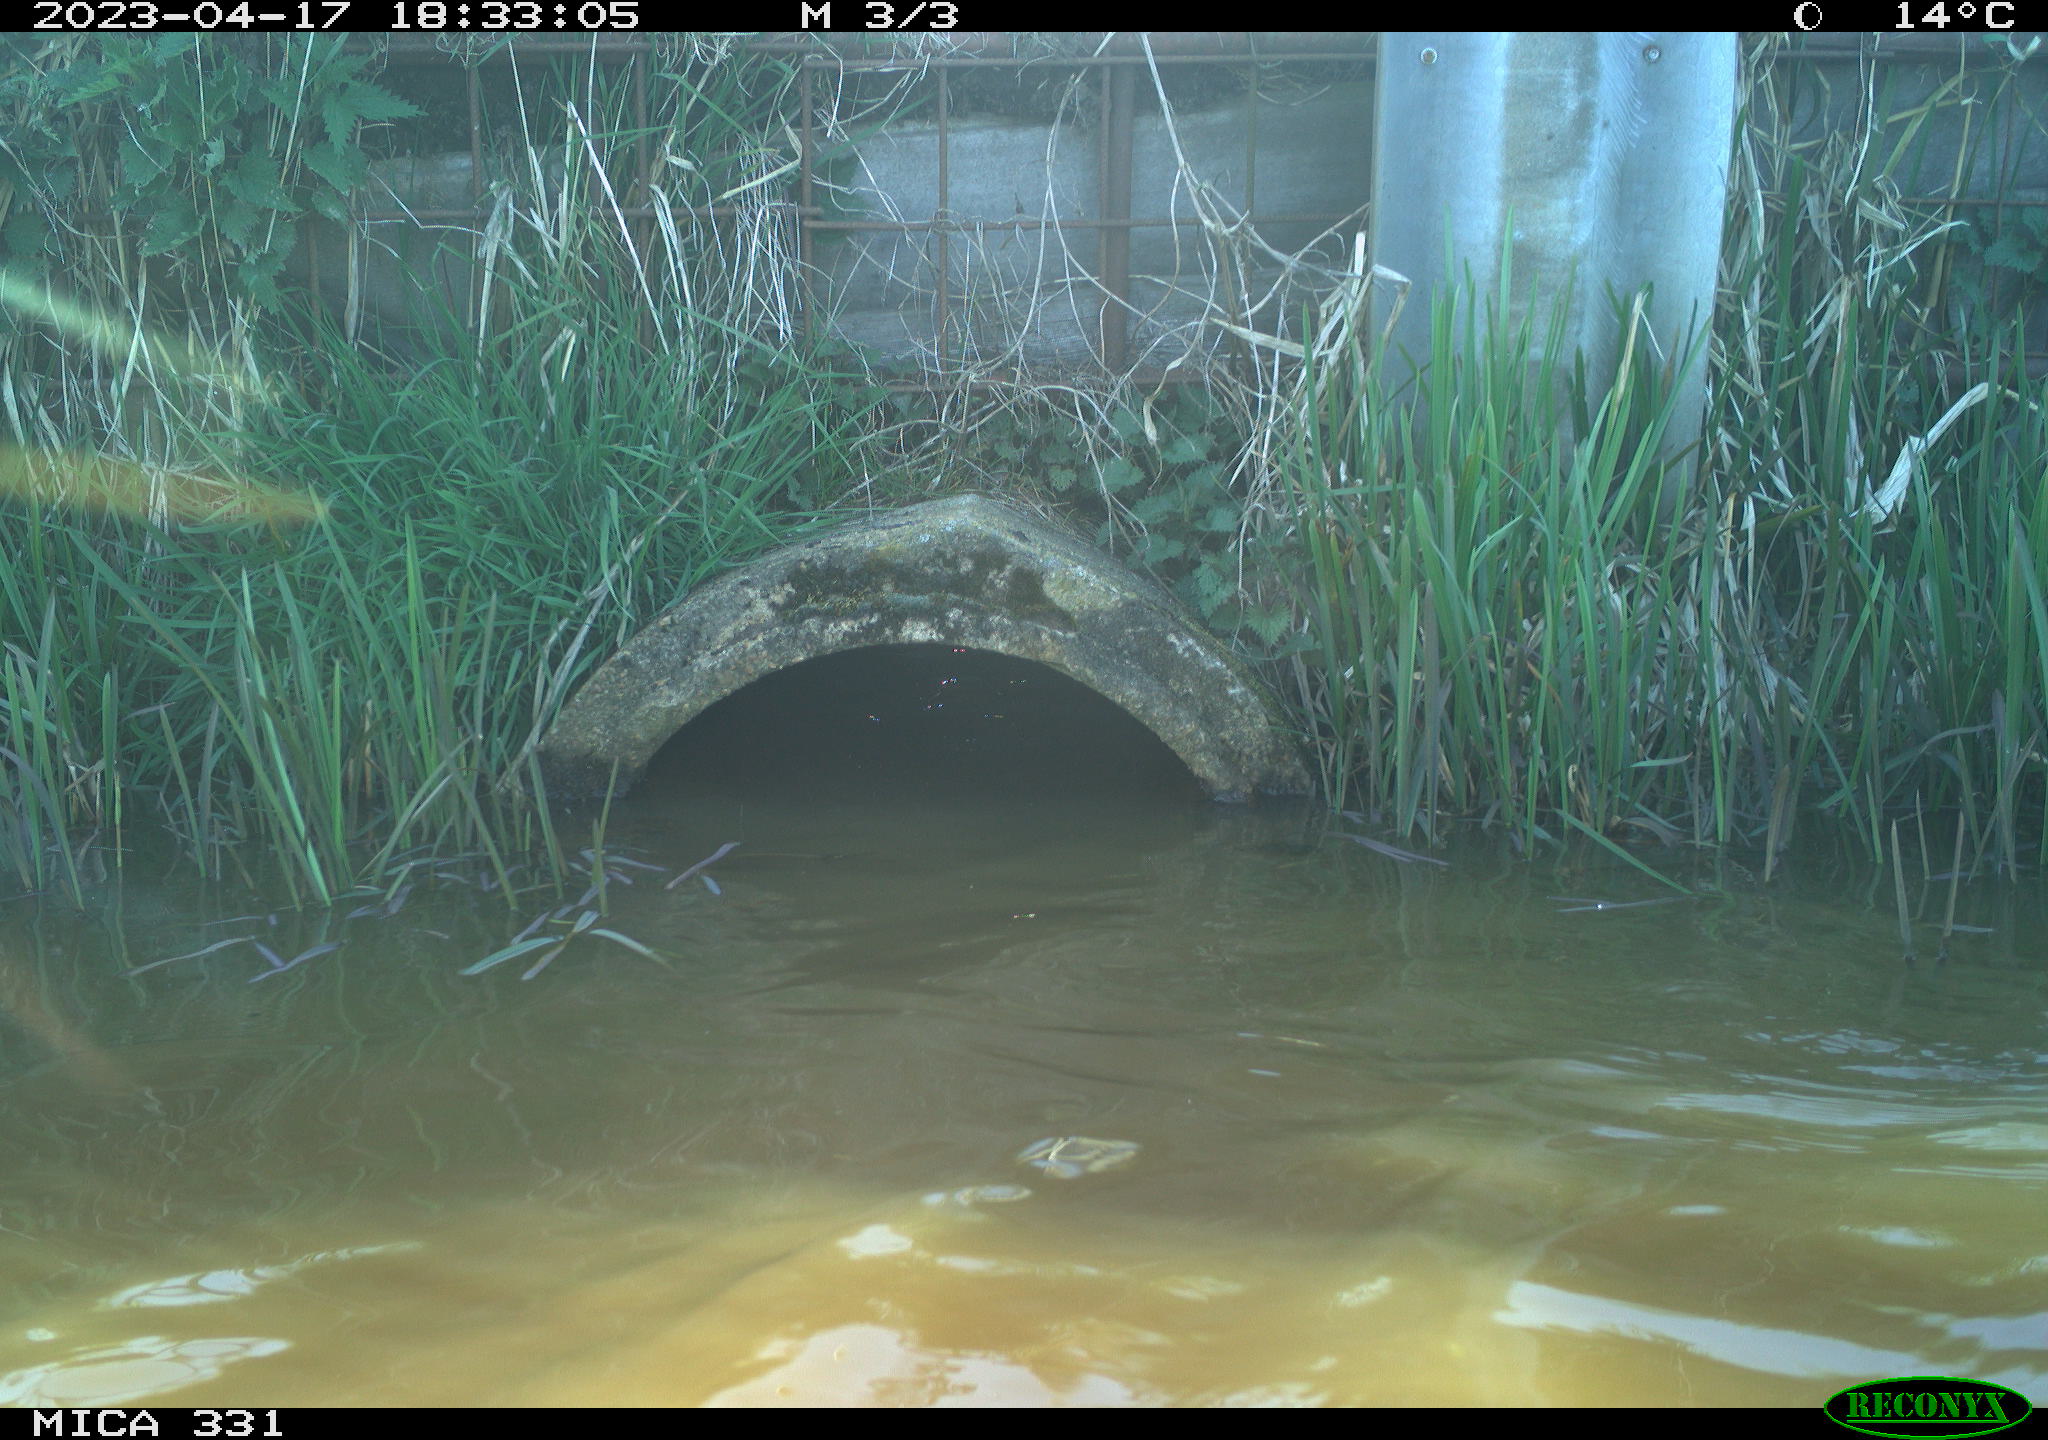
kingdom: Animalia
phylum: Chordata
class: Aves
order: Gruiformes
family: Rallidae
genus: Fulica
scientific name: Fulica atra
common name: Eurasian coot
